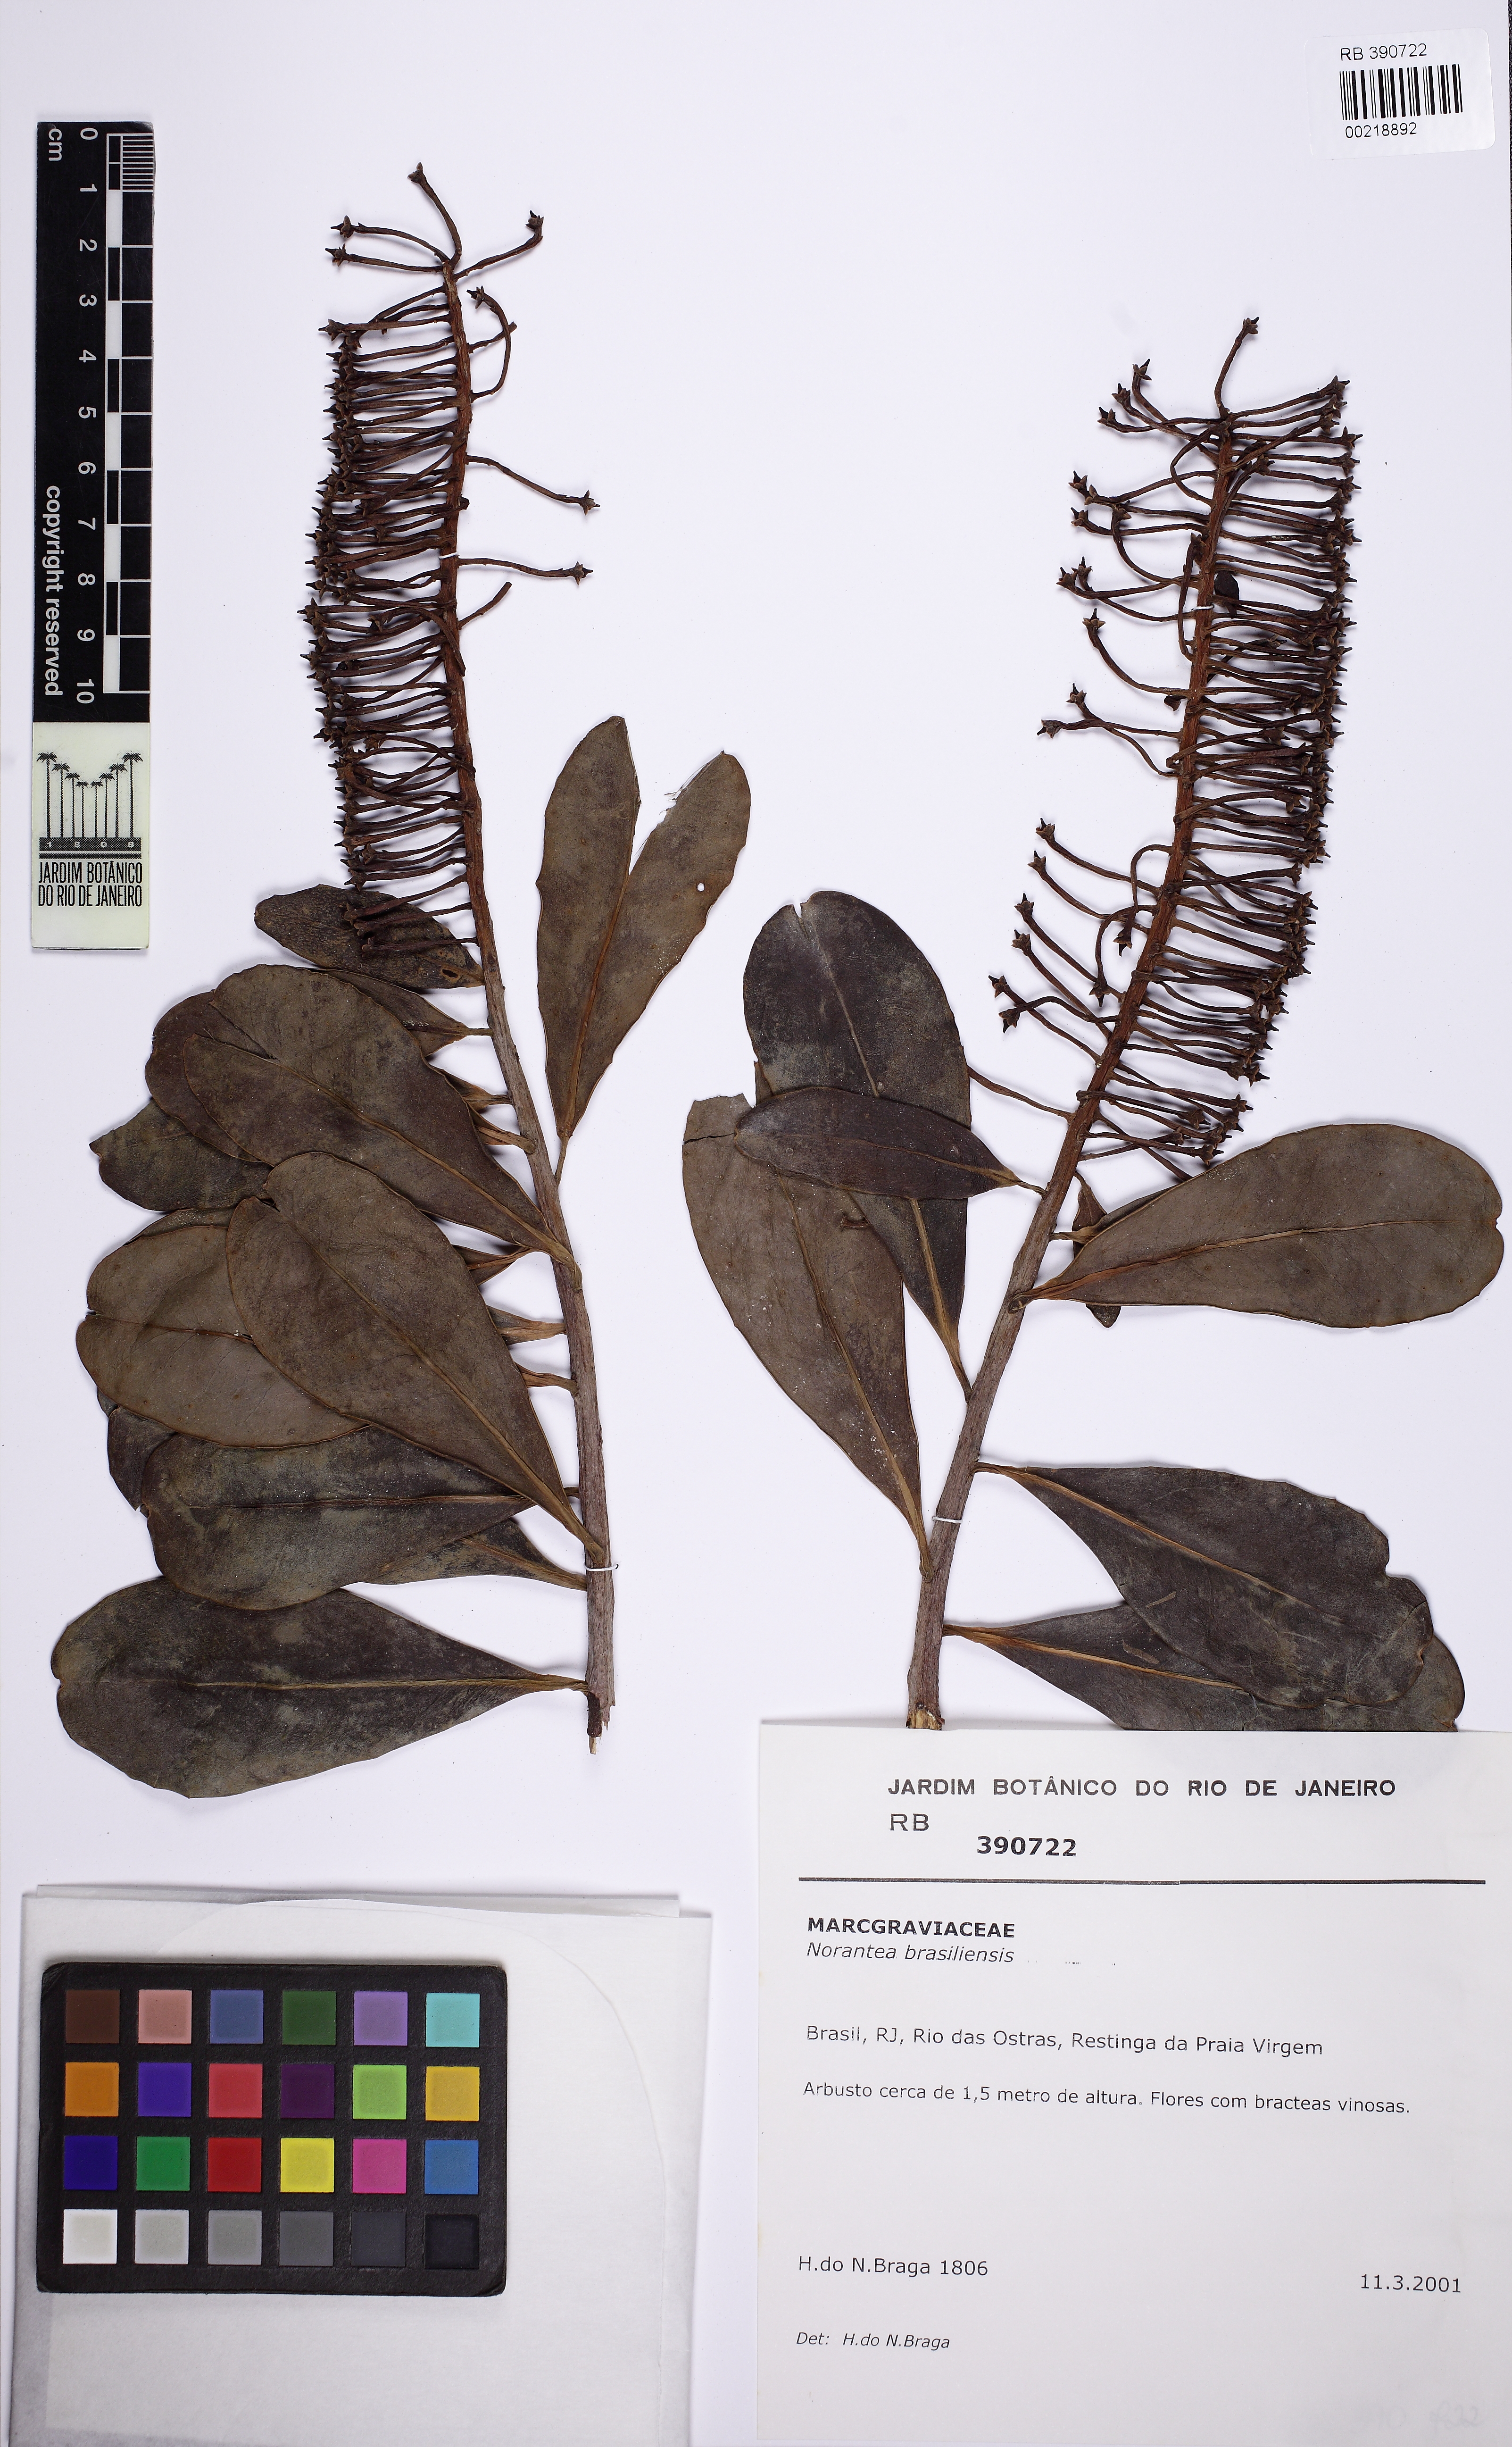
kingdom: Plantae
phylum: Tracheophyta
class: Magnoliopsida
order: Ericales
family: Marcgraviaceae
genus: Schwartzia
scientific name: Schwartzia brasiliensis
